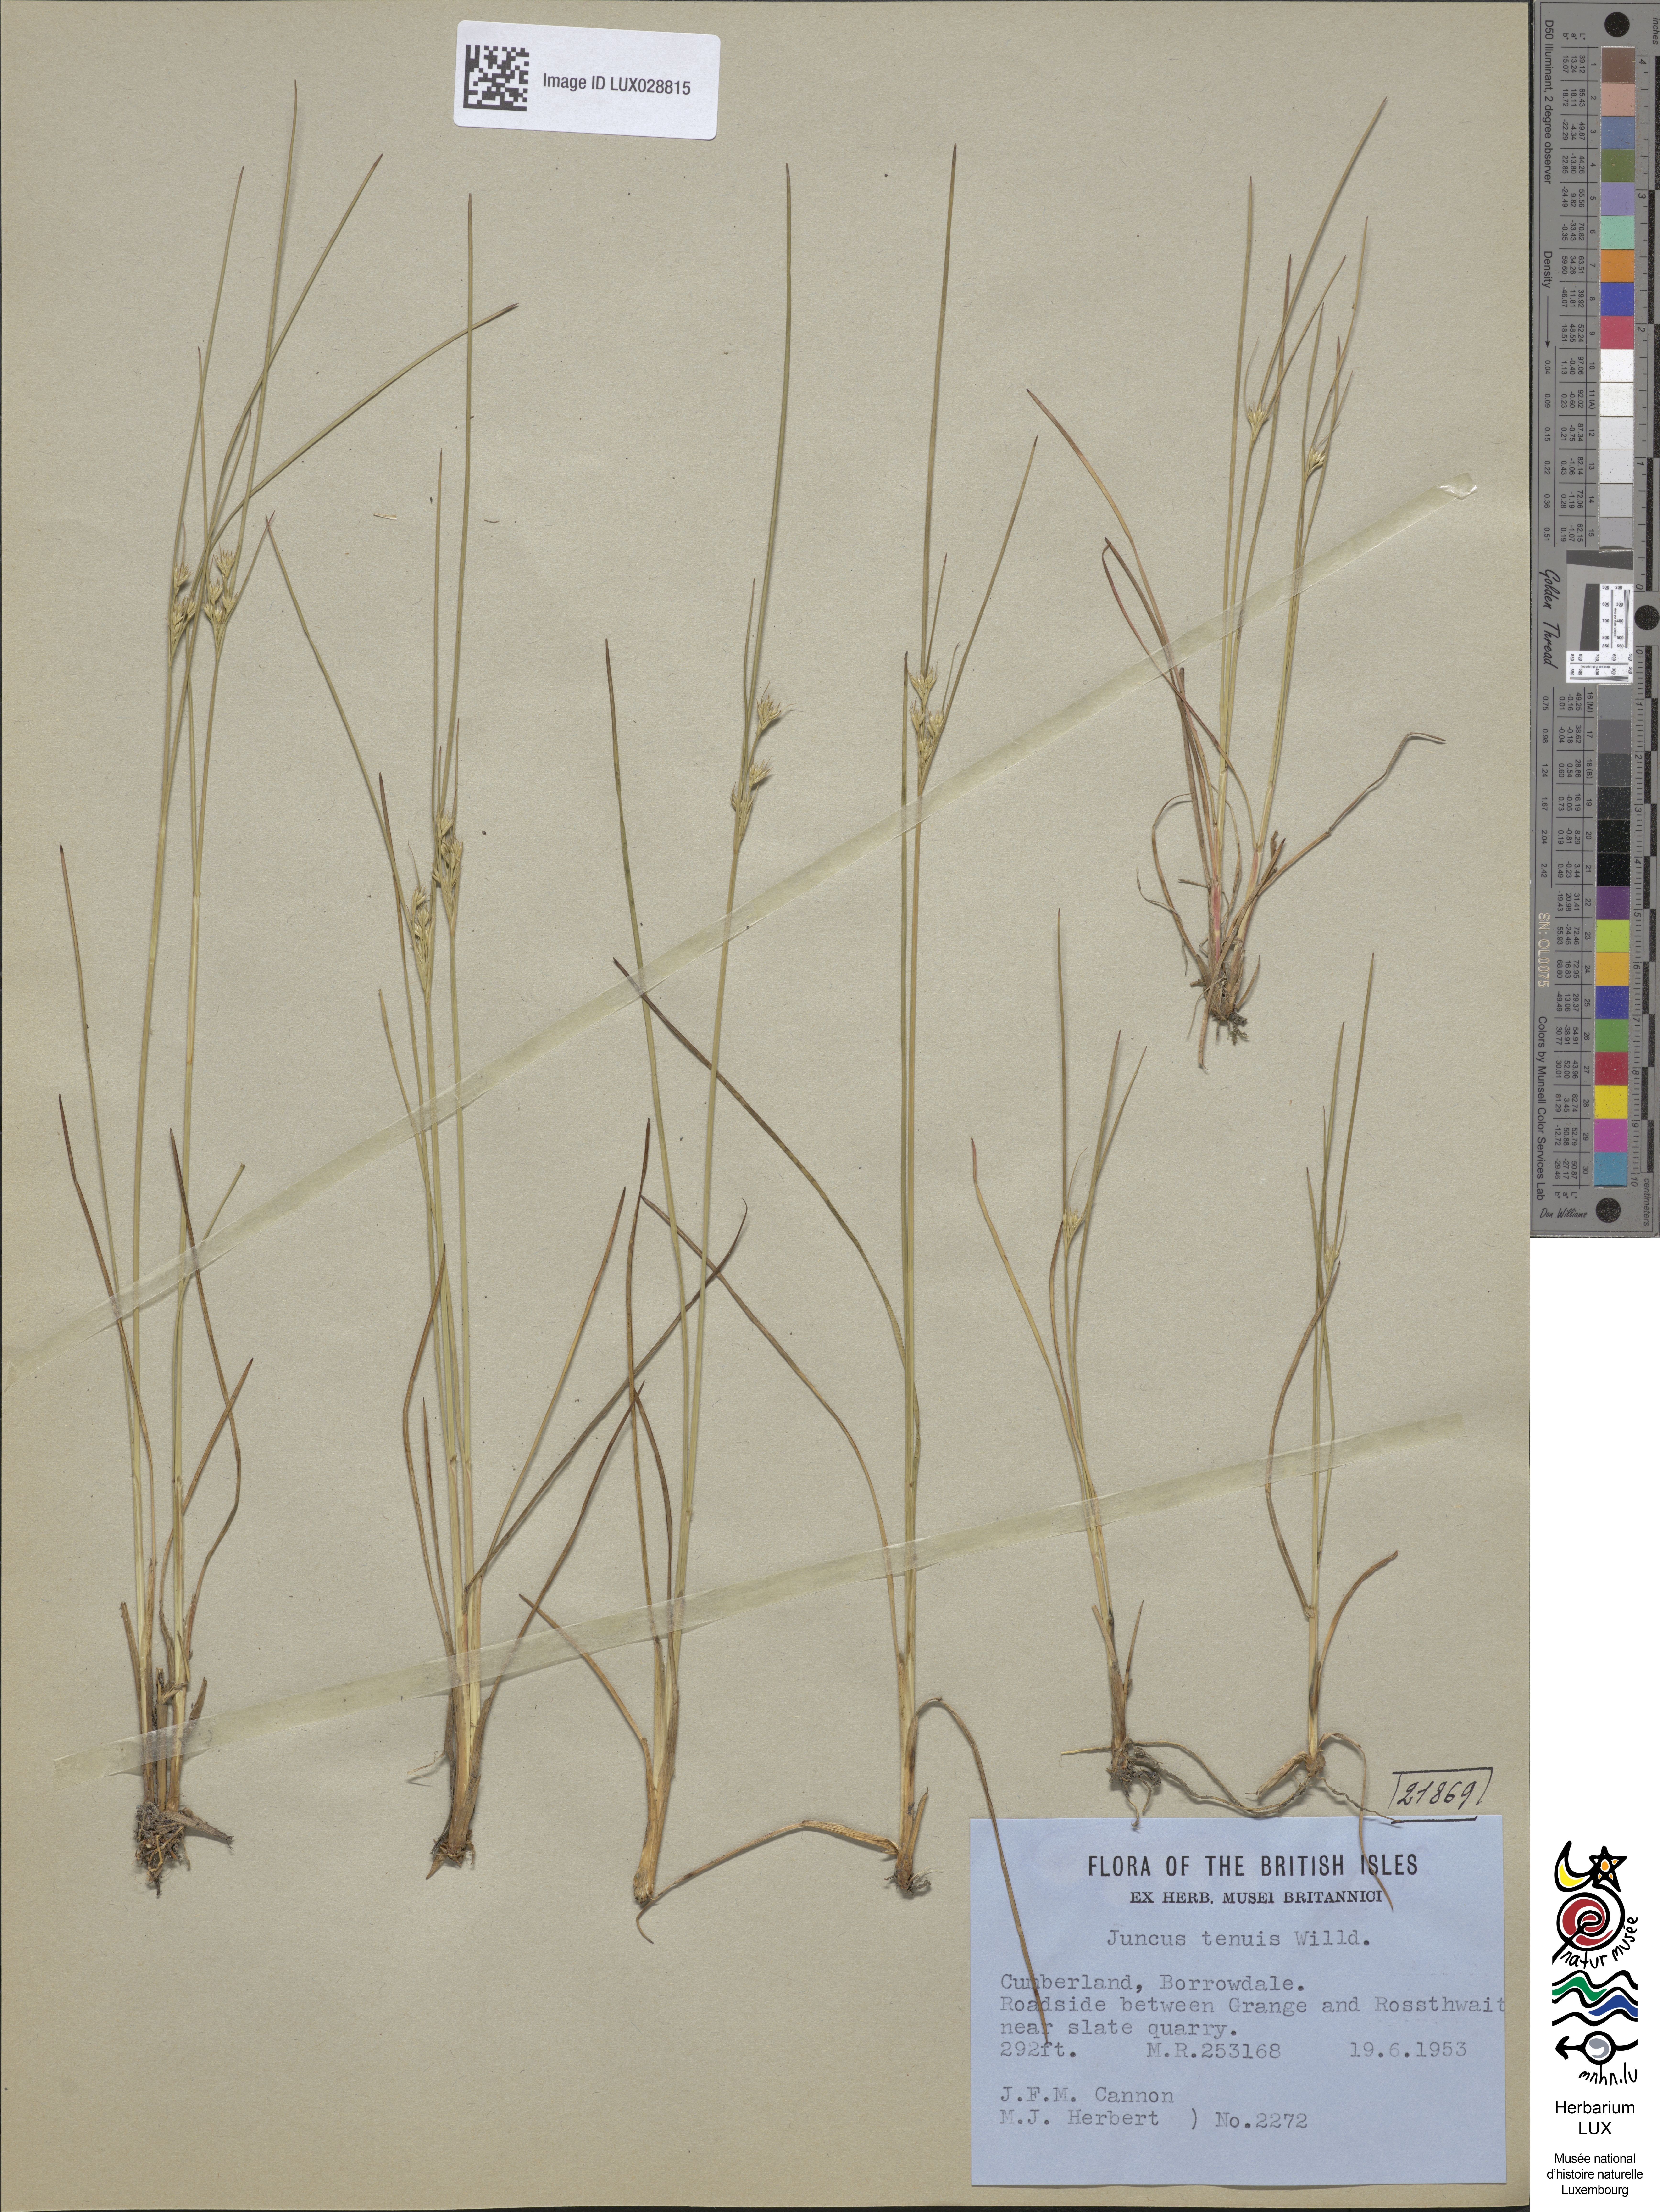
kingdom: Plantae
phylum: Tracheophyta
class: Liliopsida
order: Poales
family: Juncaceae
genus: Juncus
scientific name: Juncus tenuis
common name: Slender rush
